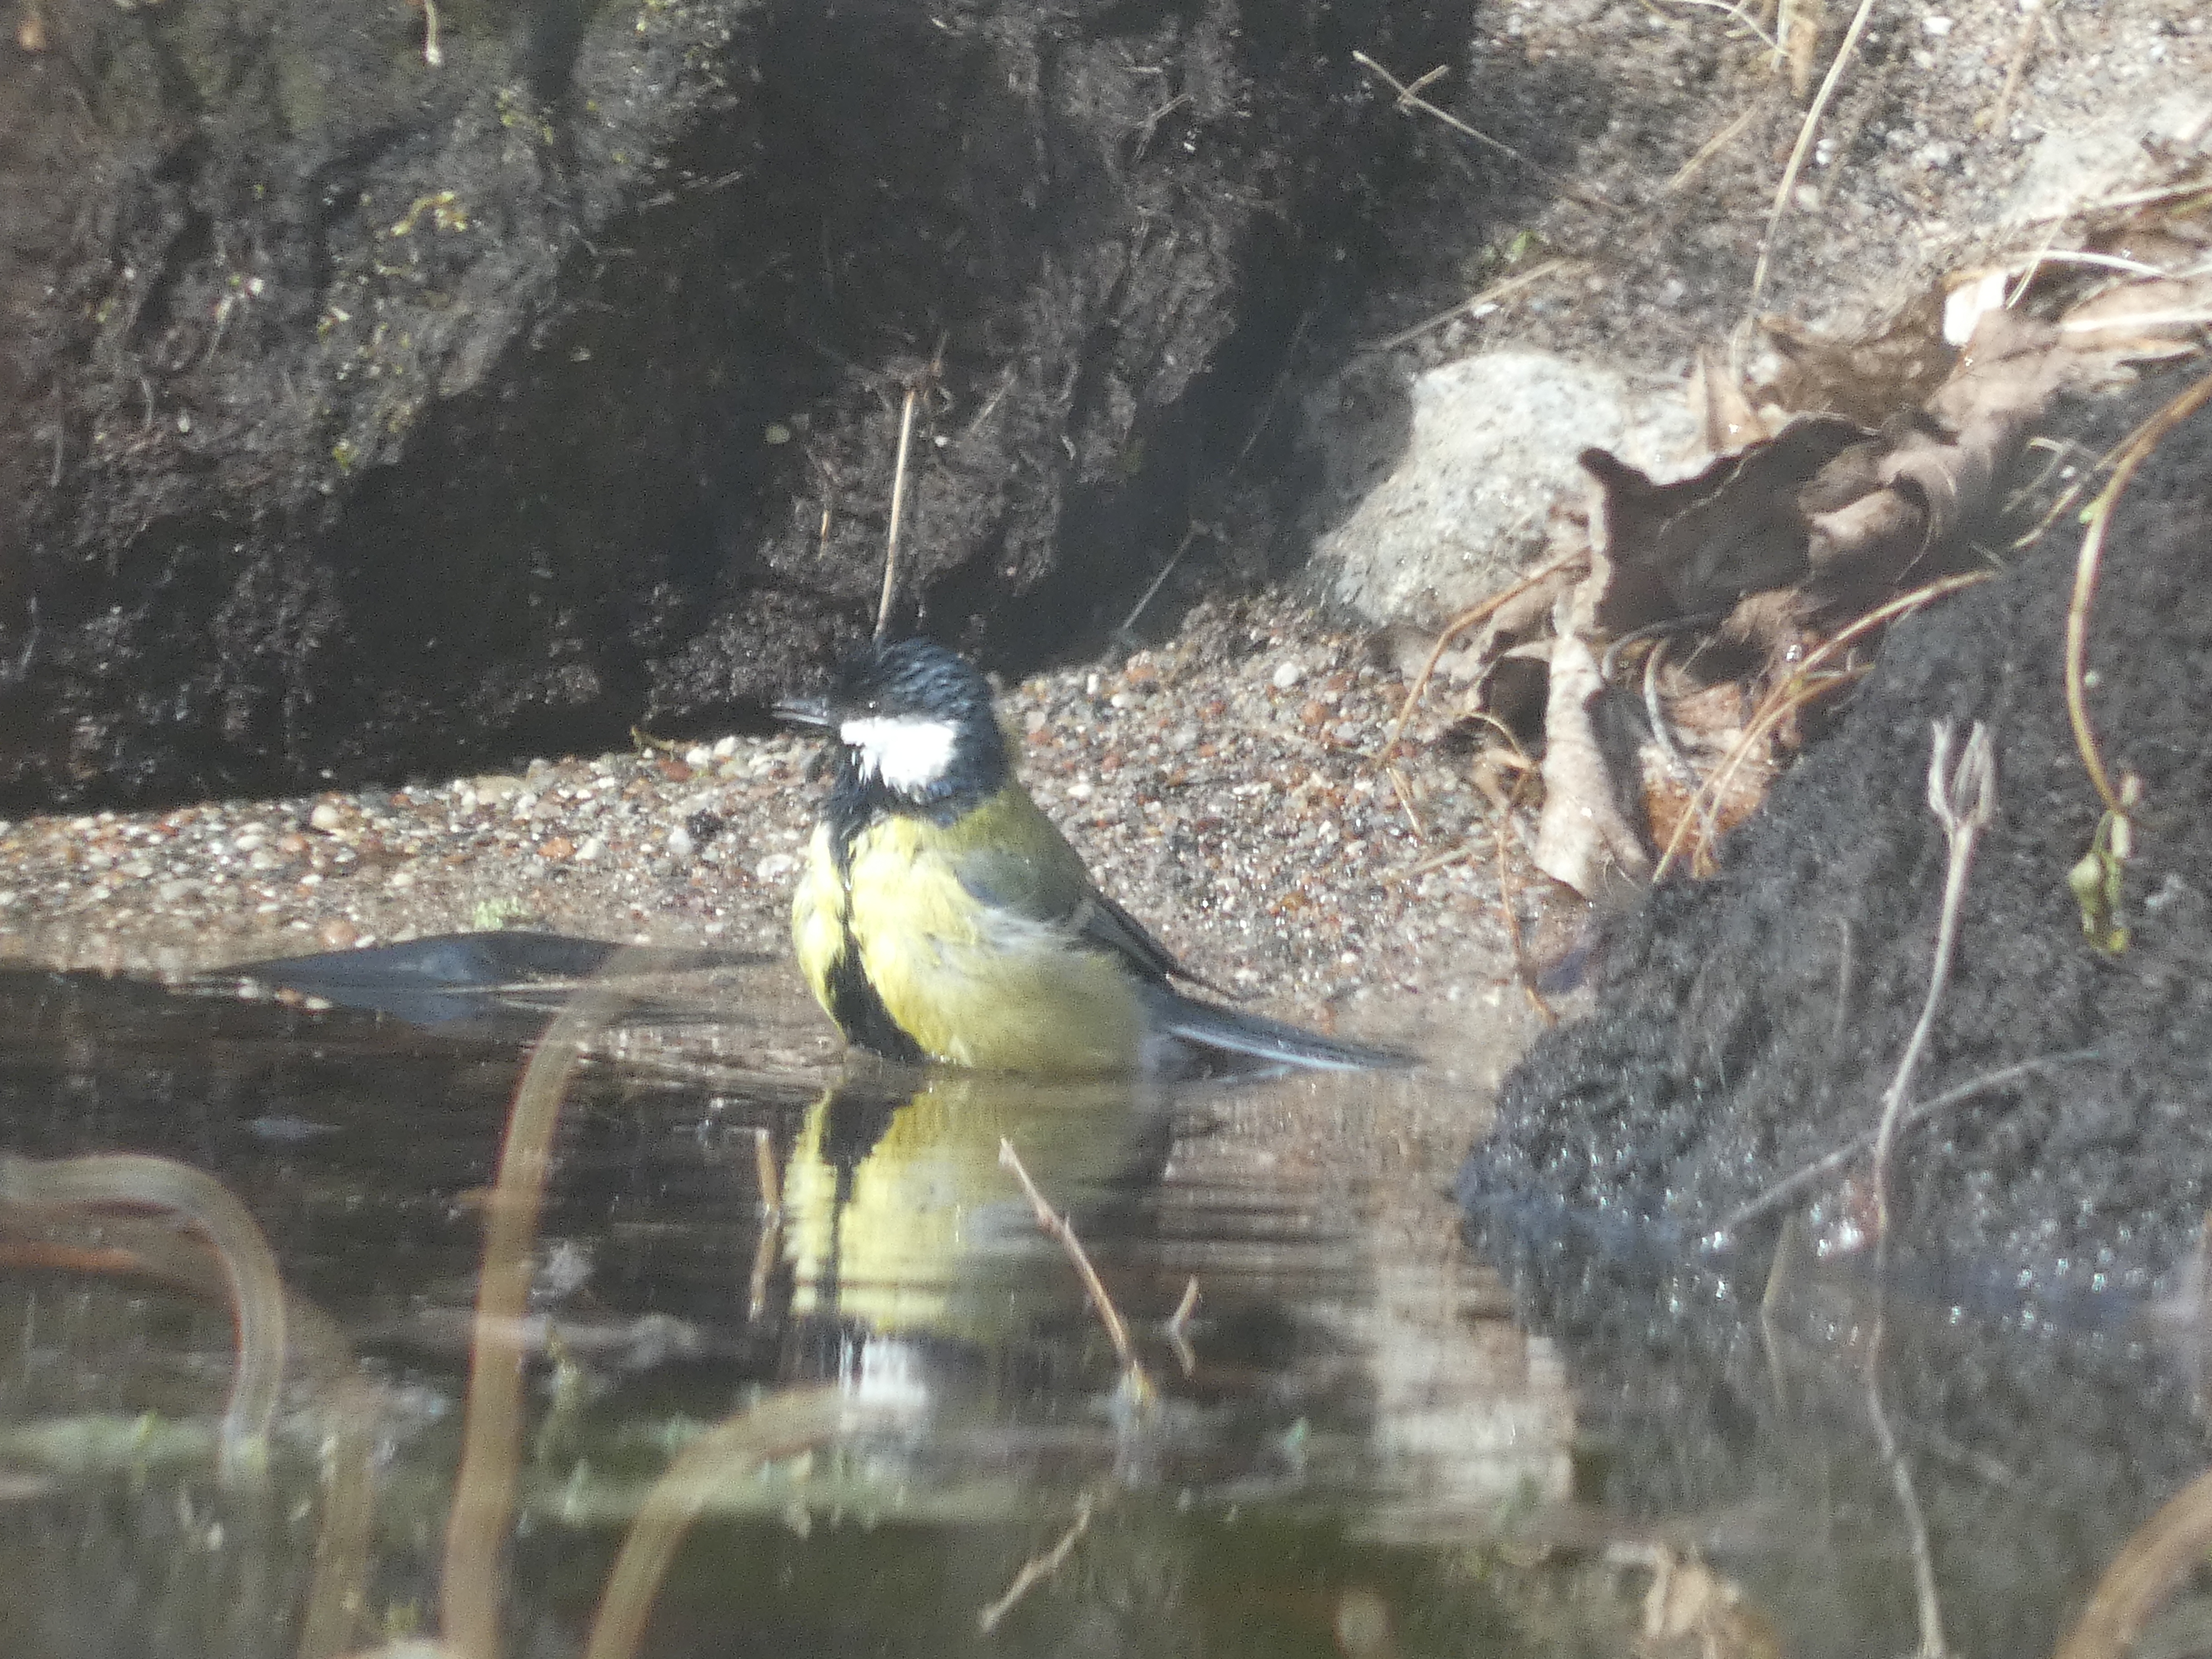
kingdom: Animalia
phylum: Chordata
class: Aves
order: Passeriformes
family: Paridae
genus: Parus
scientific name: Parus major
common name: Musvit
